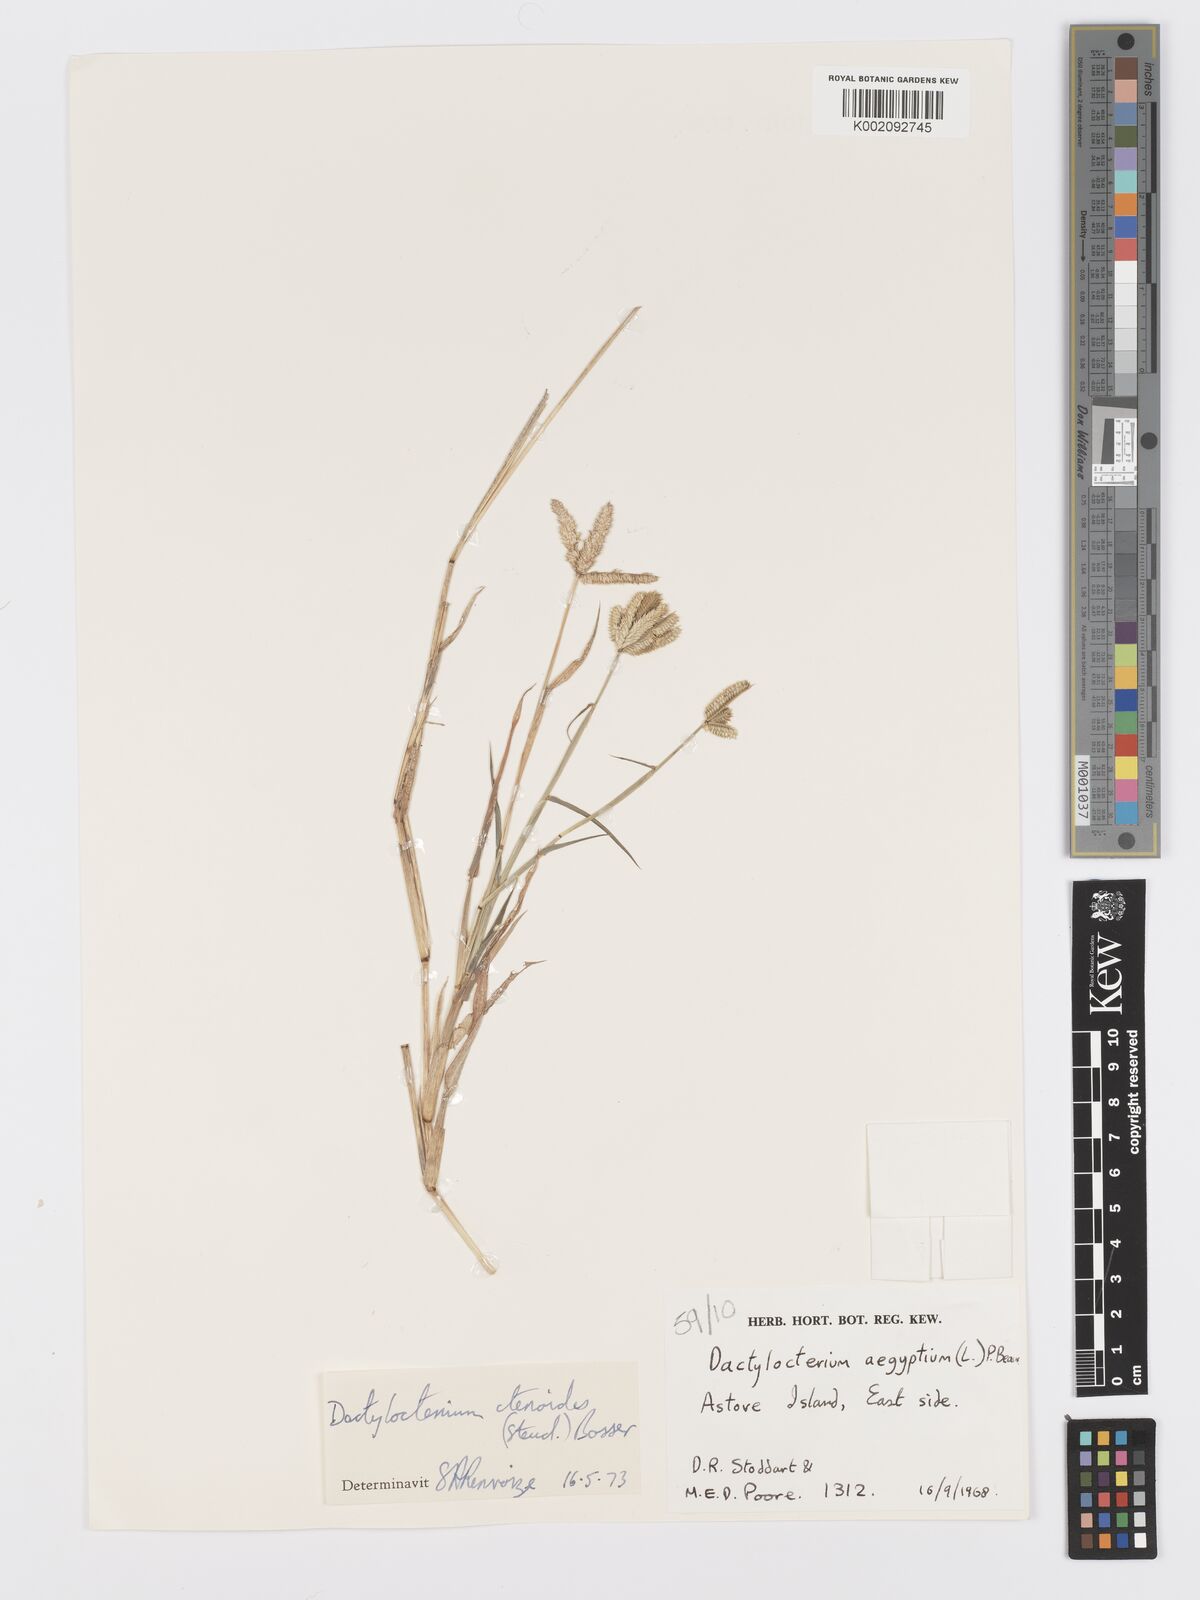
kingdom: Plantae
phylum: Tracheophyta
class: Liliopsida
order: Poales
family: Poaceae
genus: Dactyloctenium
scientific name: Dactyloctenium ctenoides
